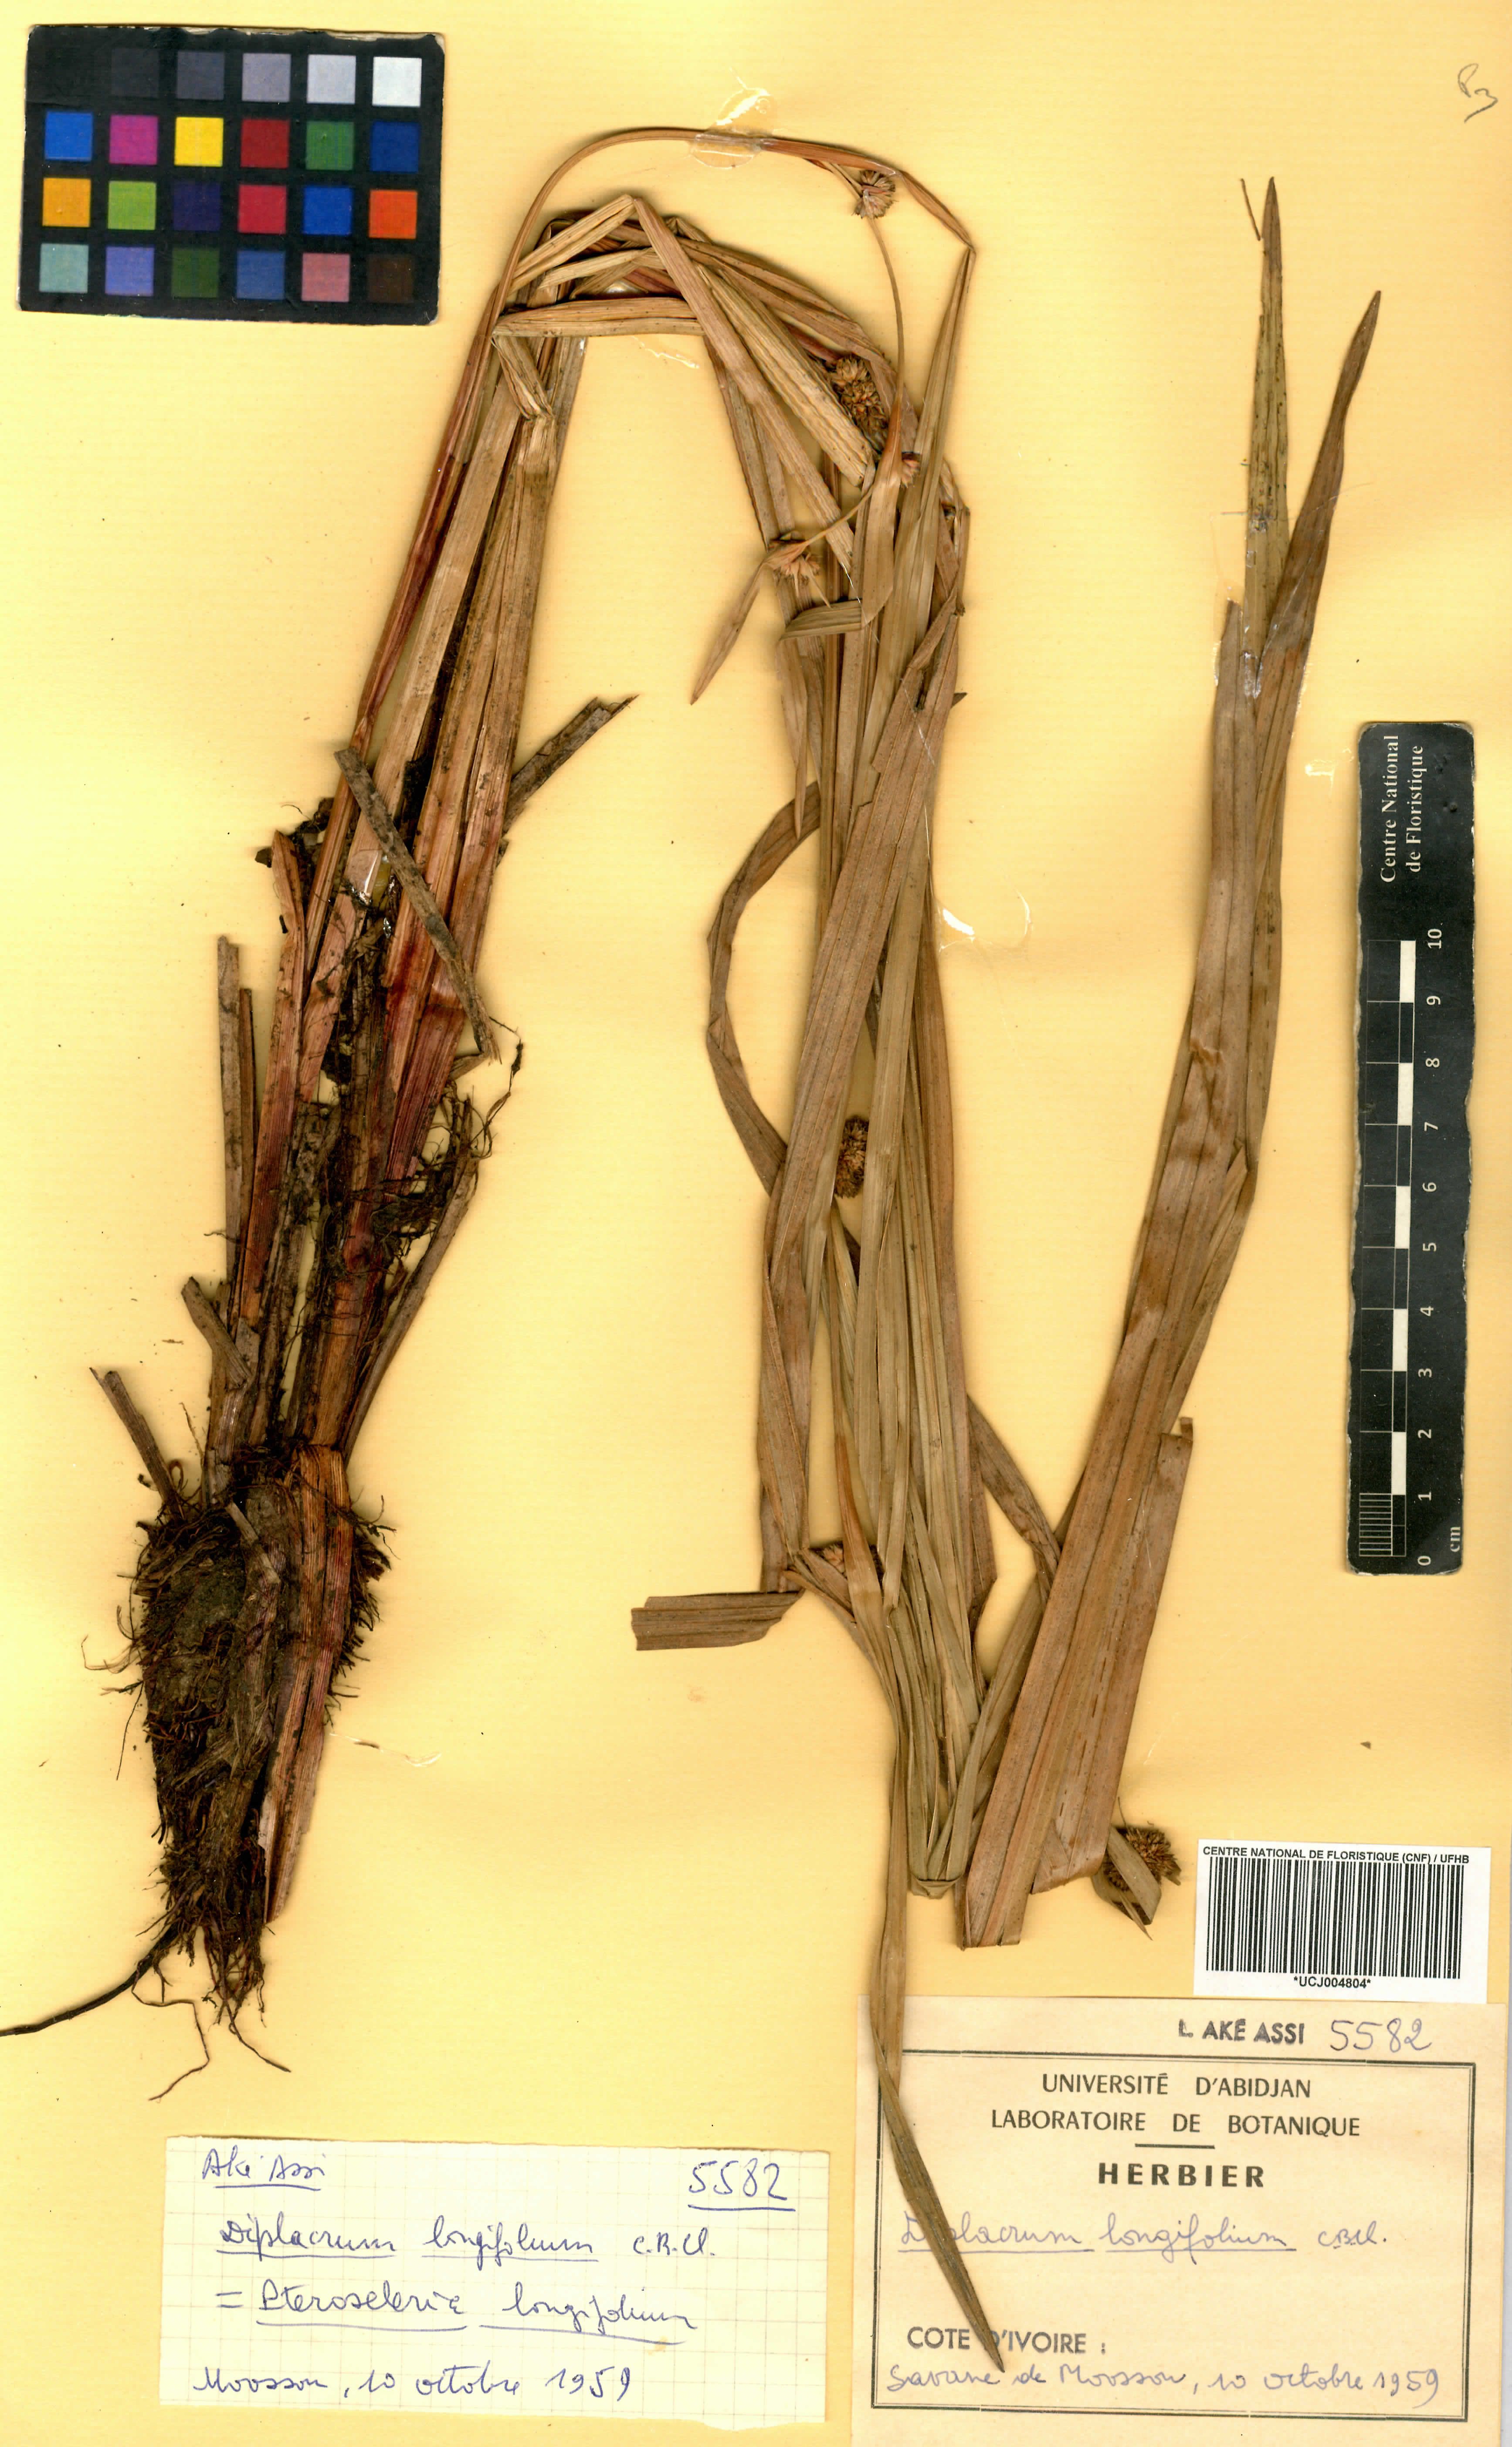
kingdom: Plantae
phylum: Tracheophyta
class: Liliopsida
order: Poales
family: Cyperaceae
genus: Diplacrum
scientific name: Diplacrum capitatum
